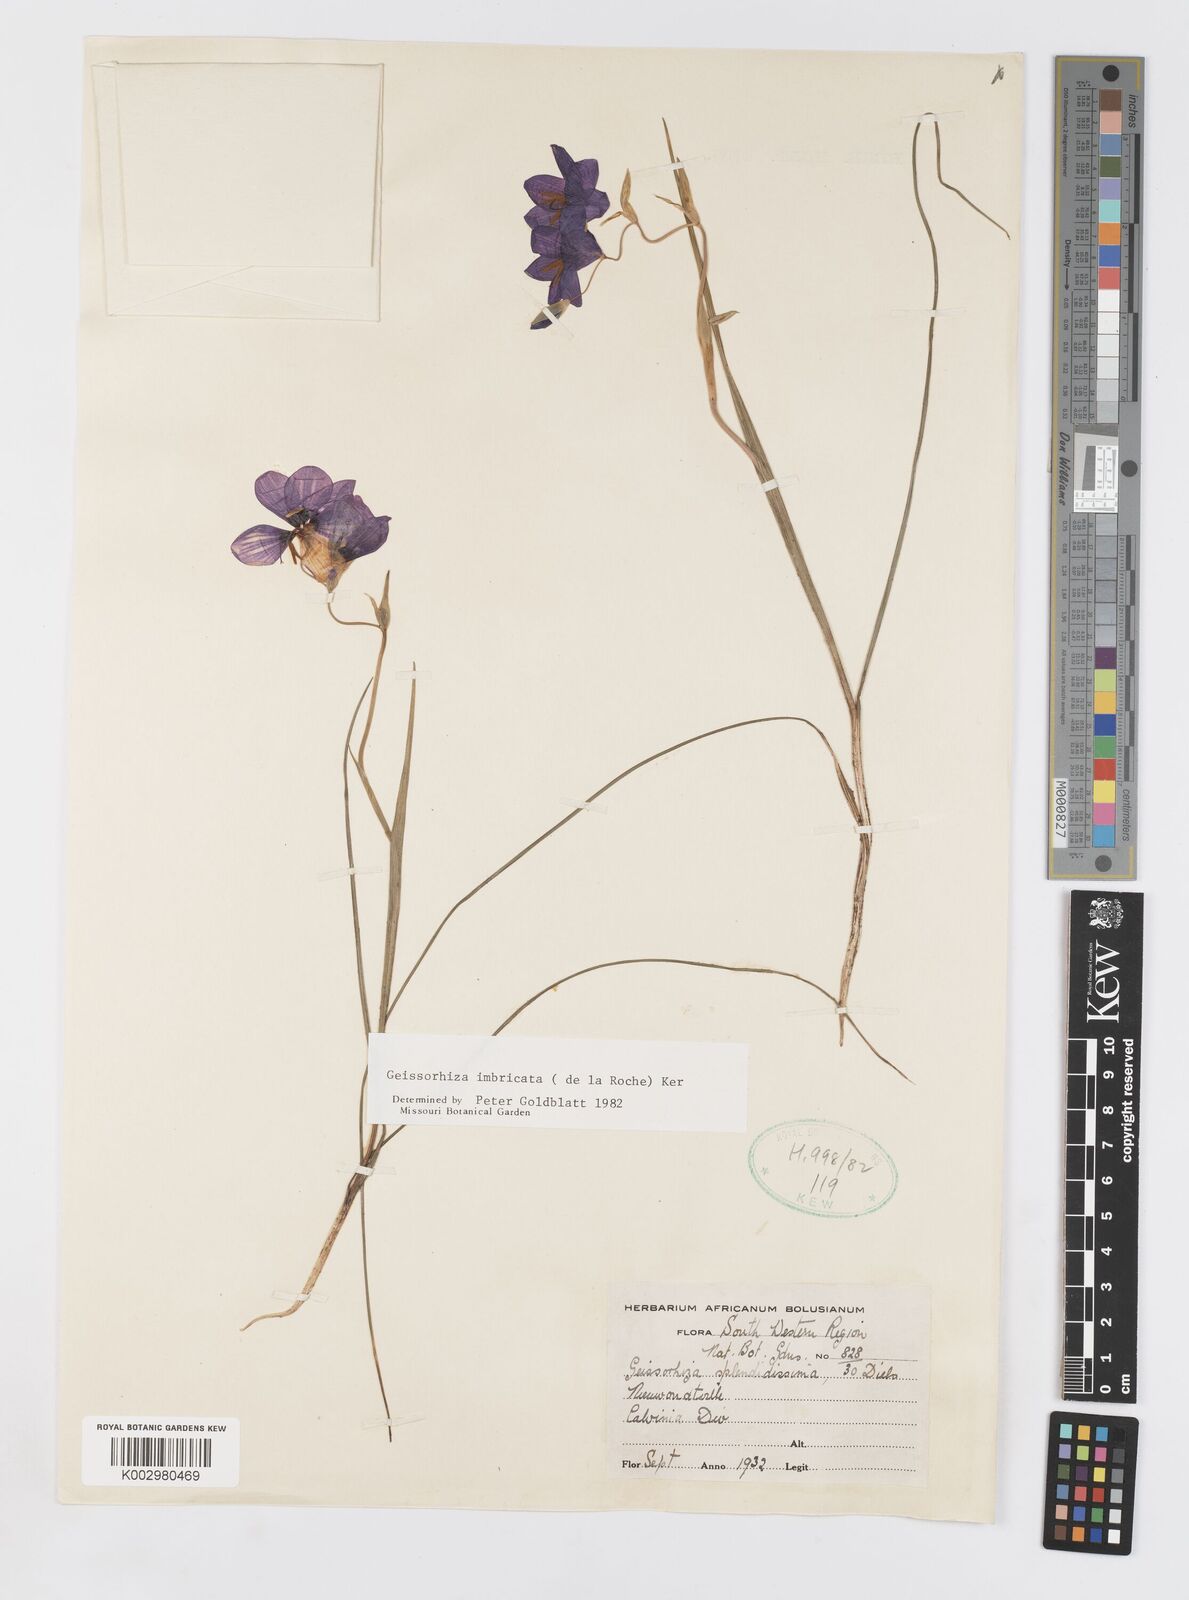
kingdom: Plantae
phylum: Tracheophyta
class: Liliopsida
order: Asparagales
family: Iridaceae
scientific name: Iridaceae
